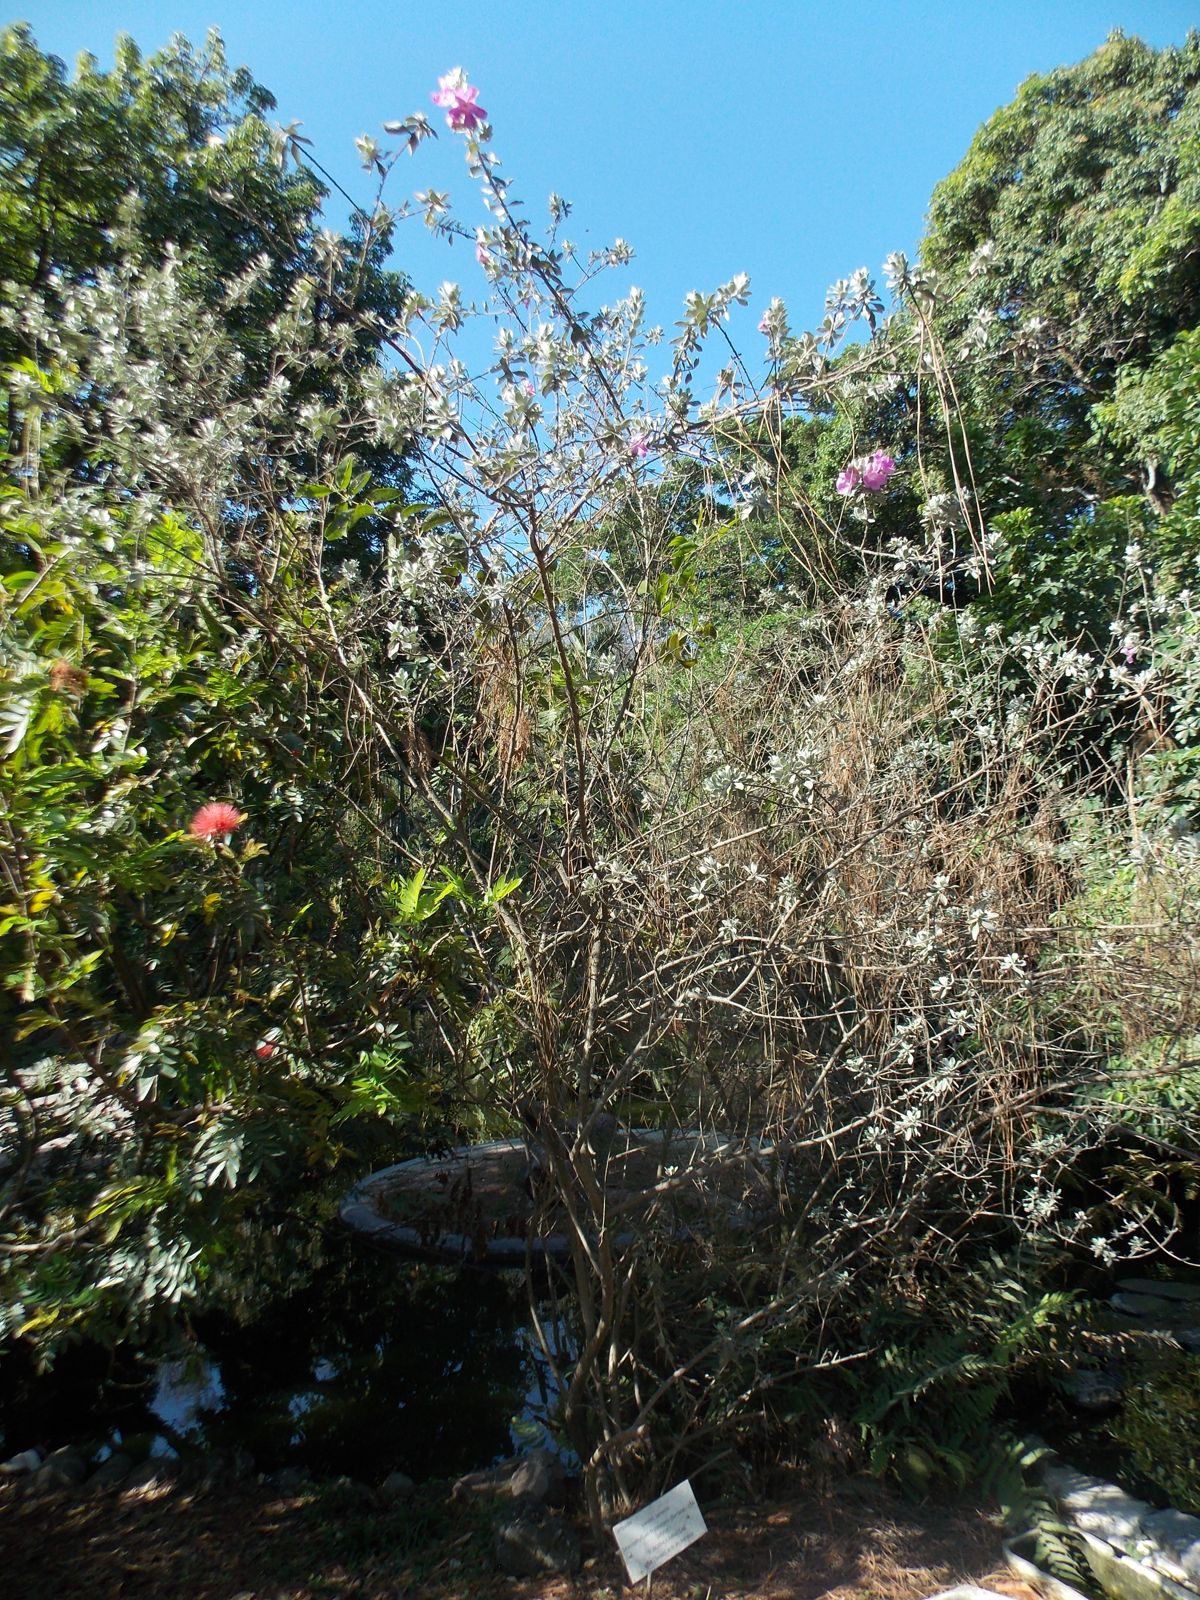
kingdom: Plantae
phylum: Tracheophyta
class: Magnoliopsida
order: Lamiales
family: Scrophulariaceae
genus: Leucophyllum
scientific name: Leucophyllum frutescens
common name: Texas silverleaf
